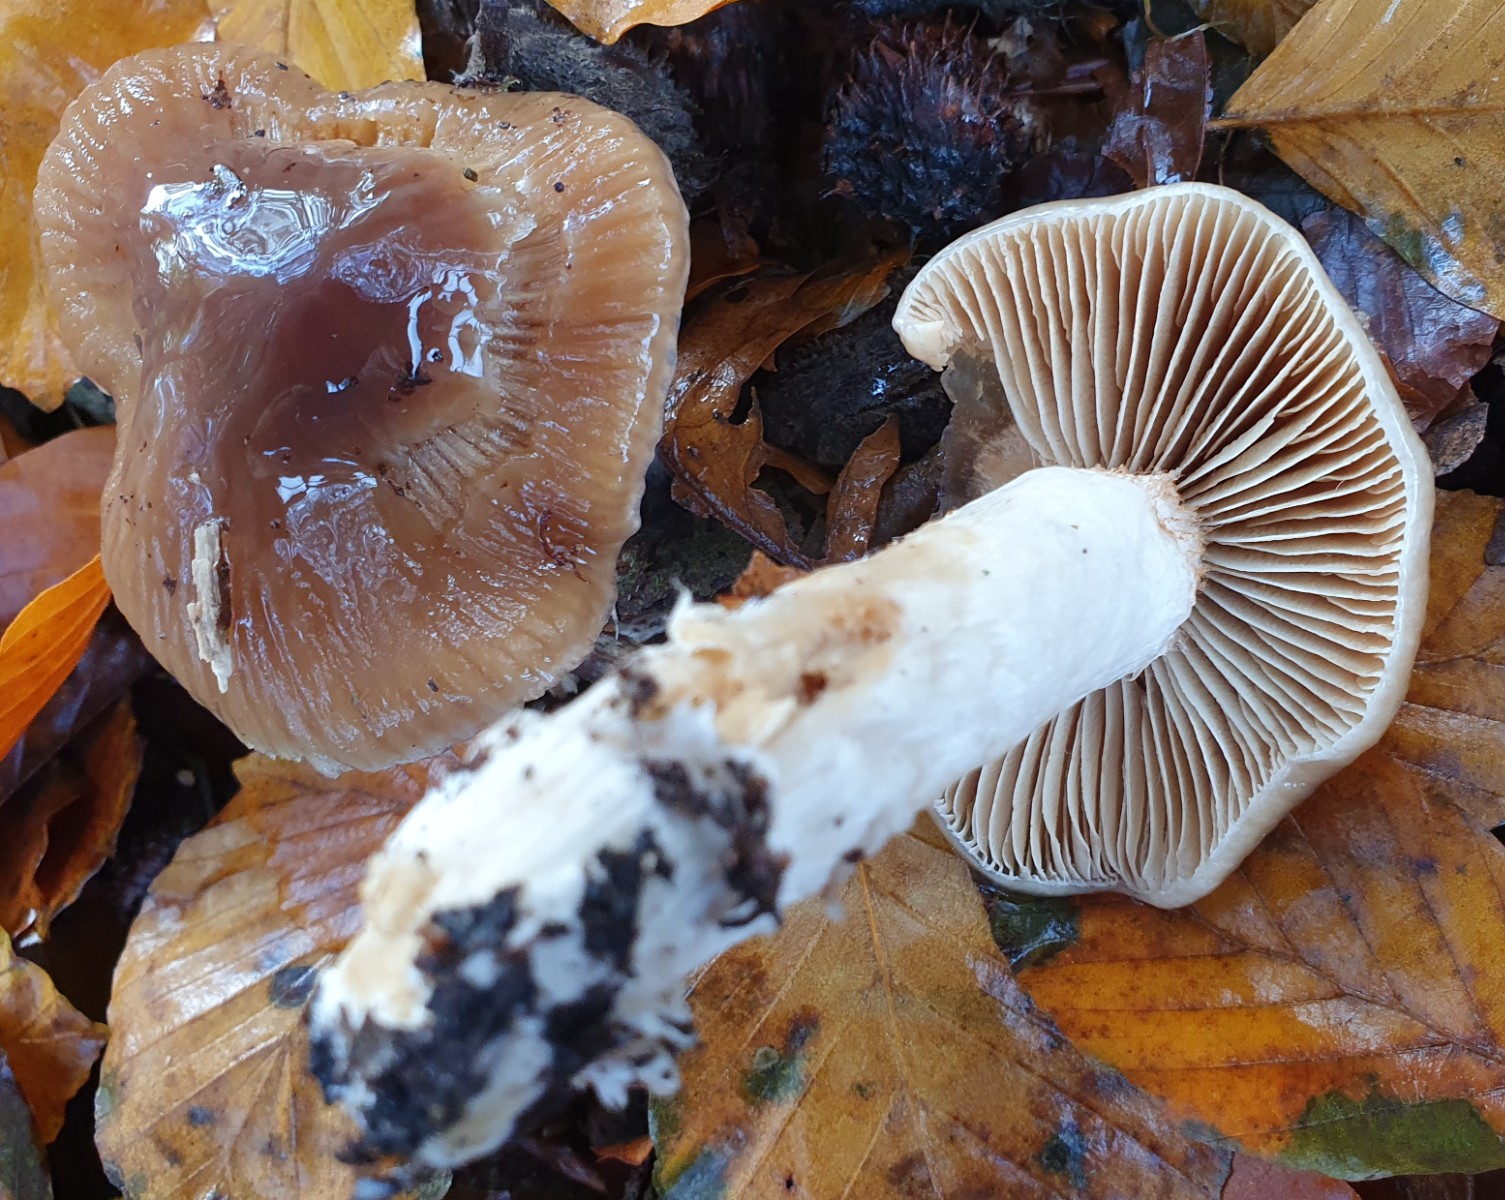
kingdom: Fungi
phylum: Basidiomycota
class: Agaricomycetes
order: Agaricales
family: Cortinariaceae
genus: Cortinarius
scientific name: Cortinarius elatior
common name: høj slørhat
